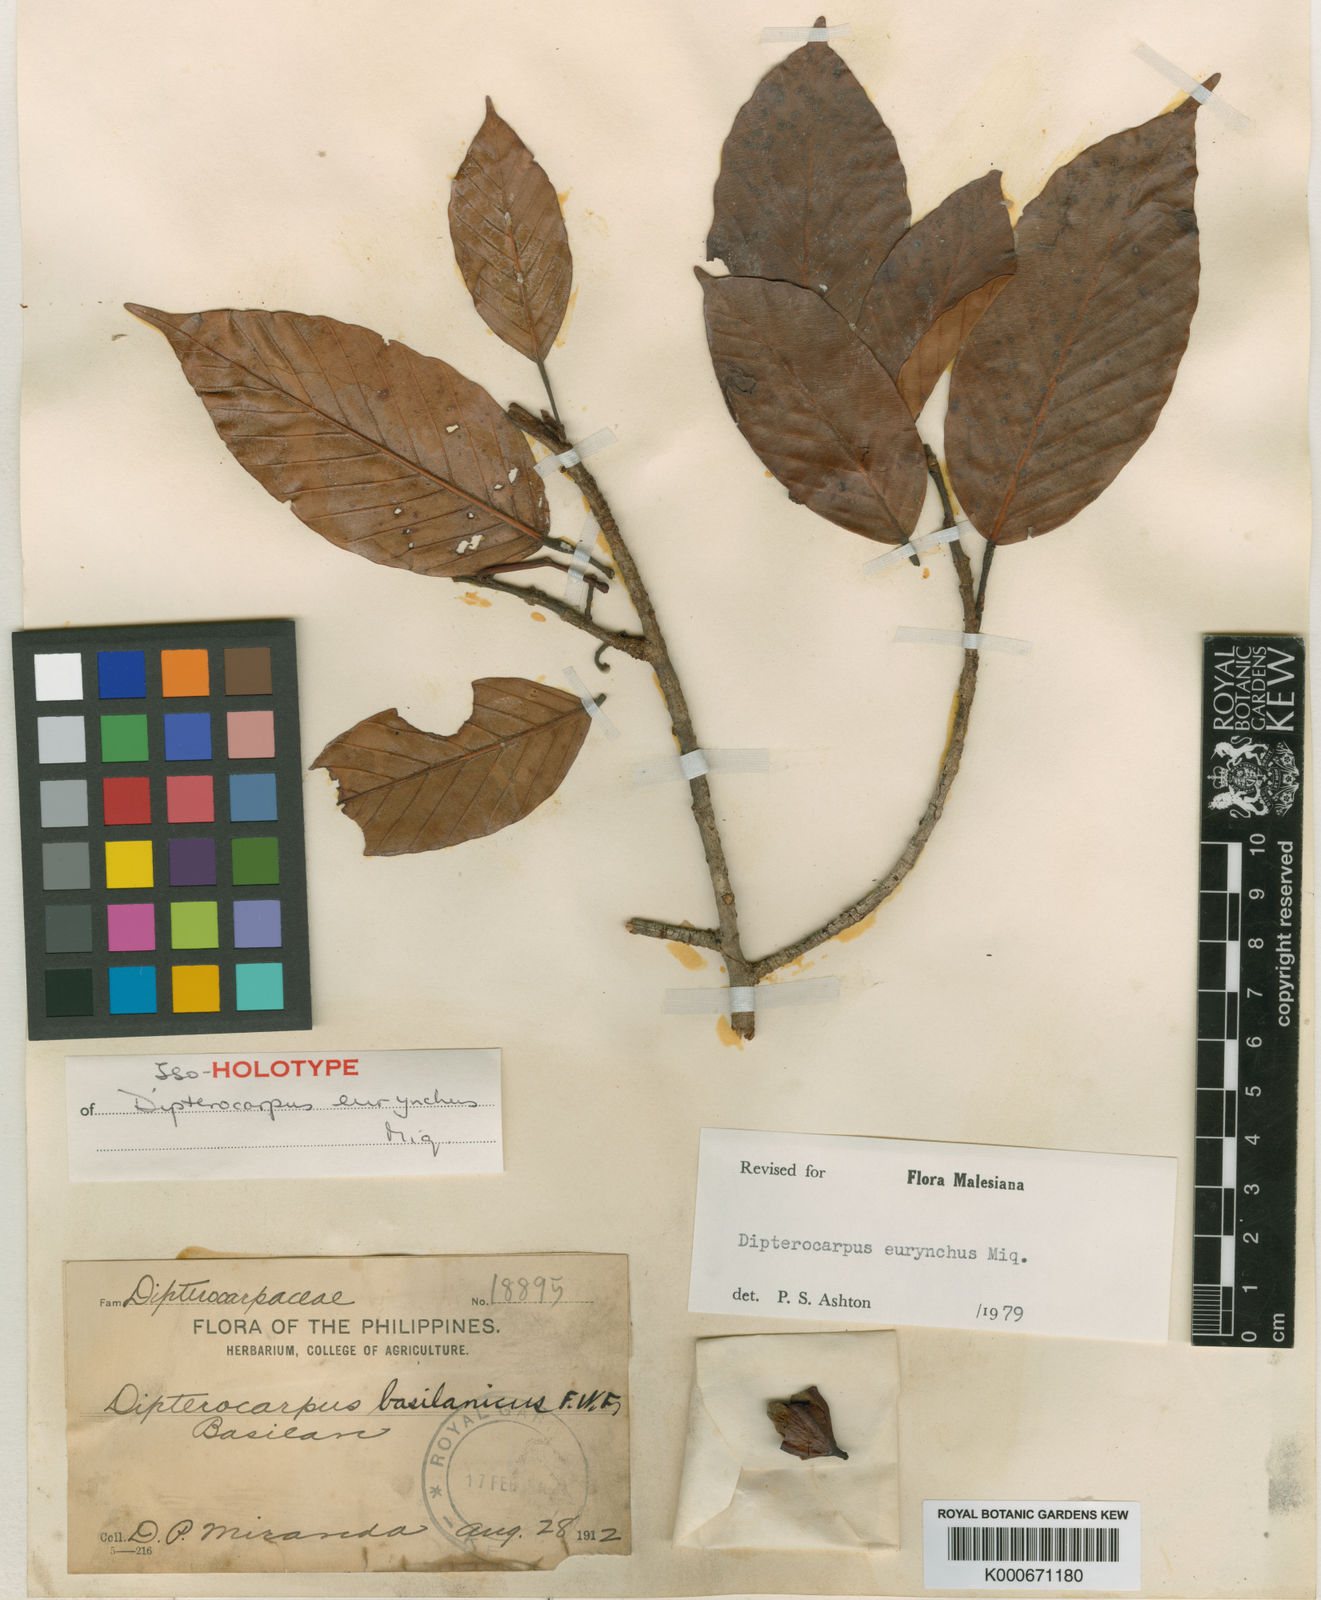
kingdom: Plantae
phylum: Tracheophyta
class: Magnoliopsida
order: Malvales
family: Dipterocarpaceae
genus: Dipterocarpus
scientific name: Dipterocarpus eurhynchus
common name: Keruing
